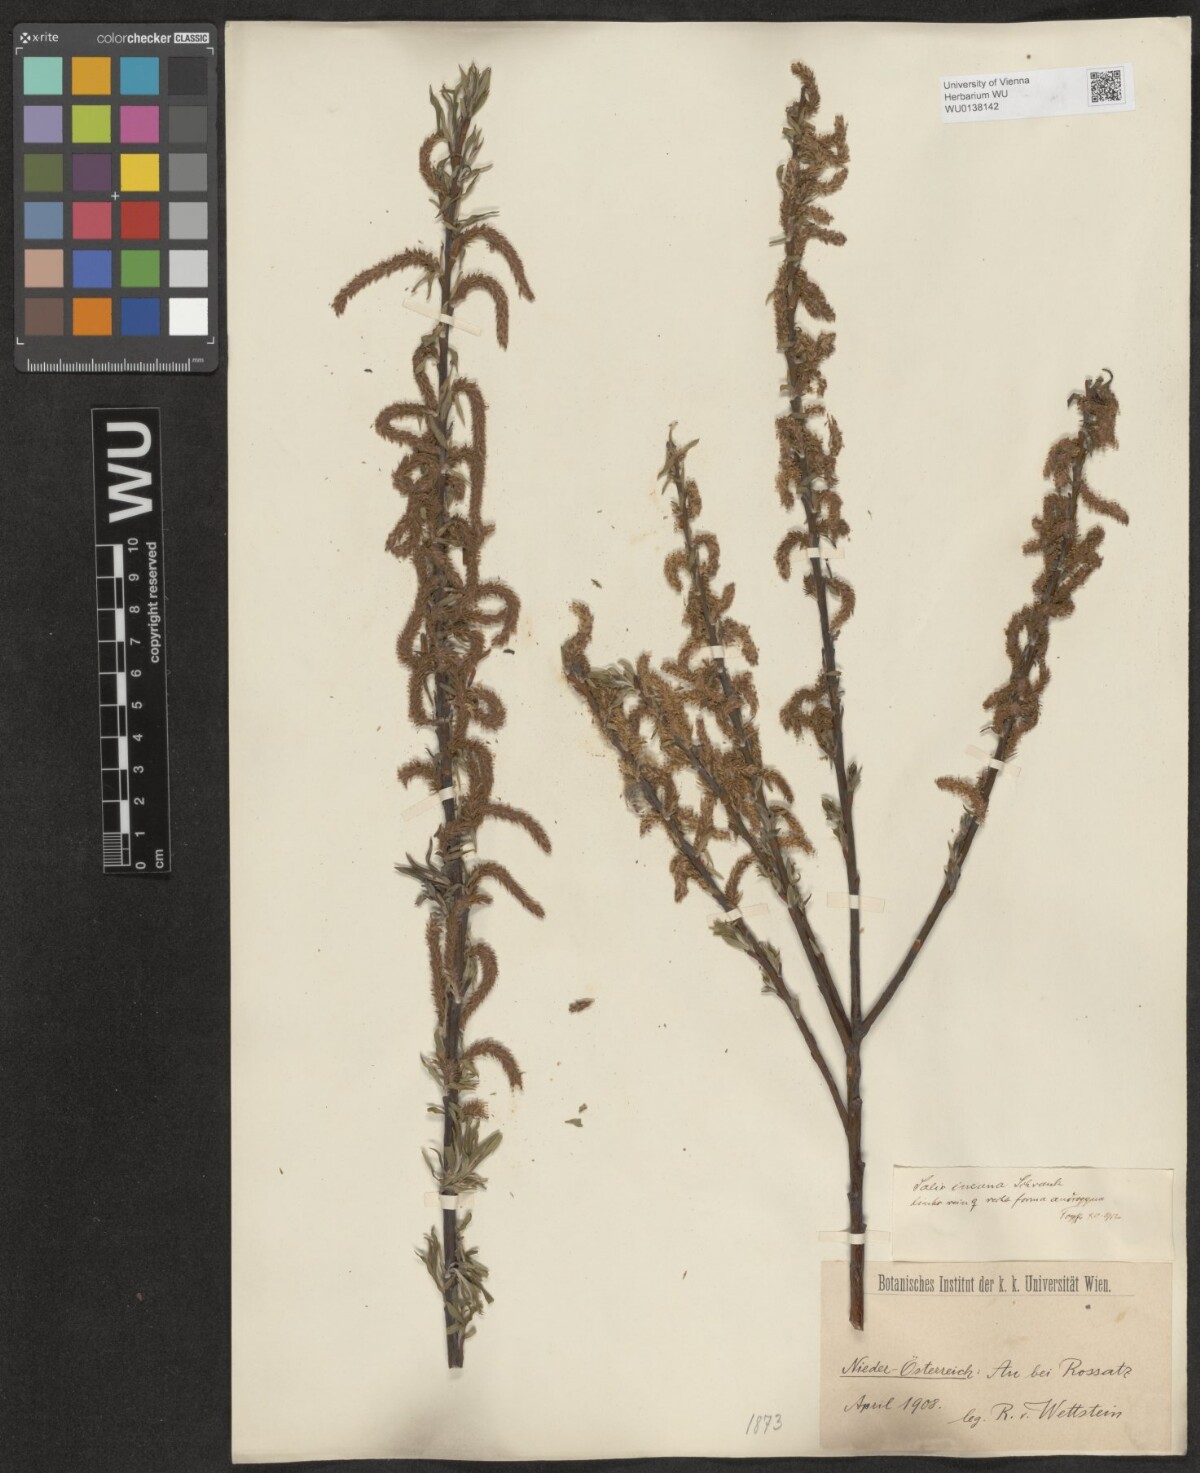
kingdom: Plantae
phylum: Tracheophyta
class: Magnoliopsida
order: Malpighiales
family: Salicaceae
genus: Salix
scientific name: Salix eleagnos
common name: Elaeagnus willow
